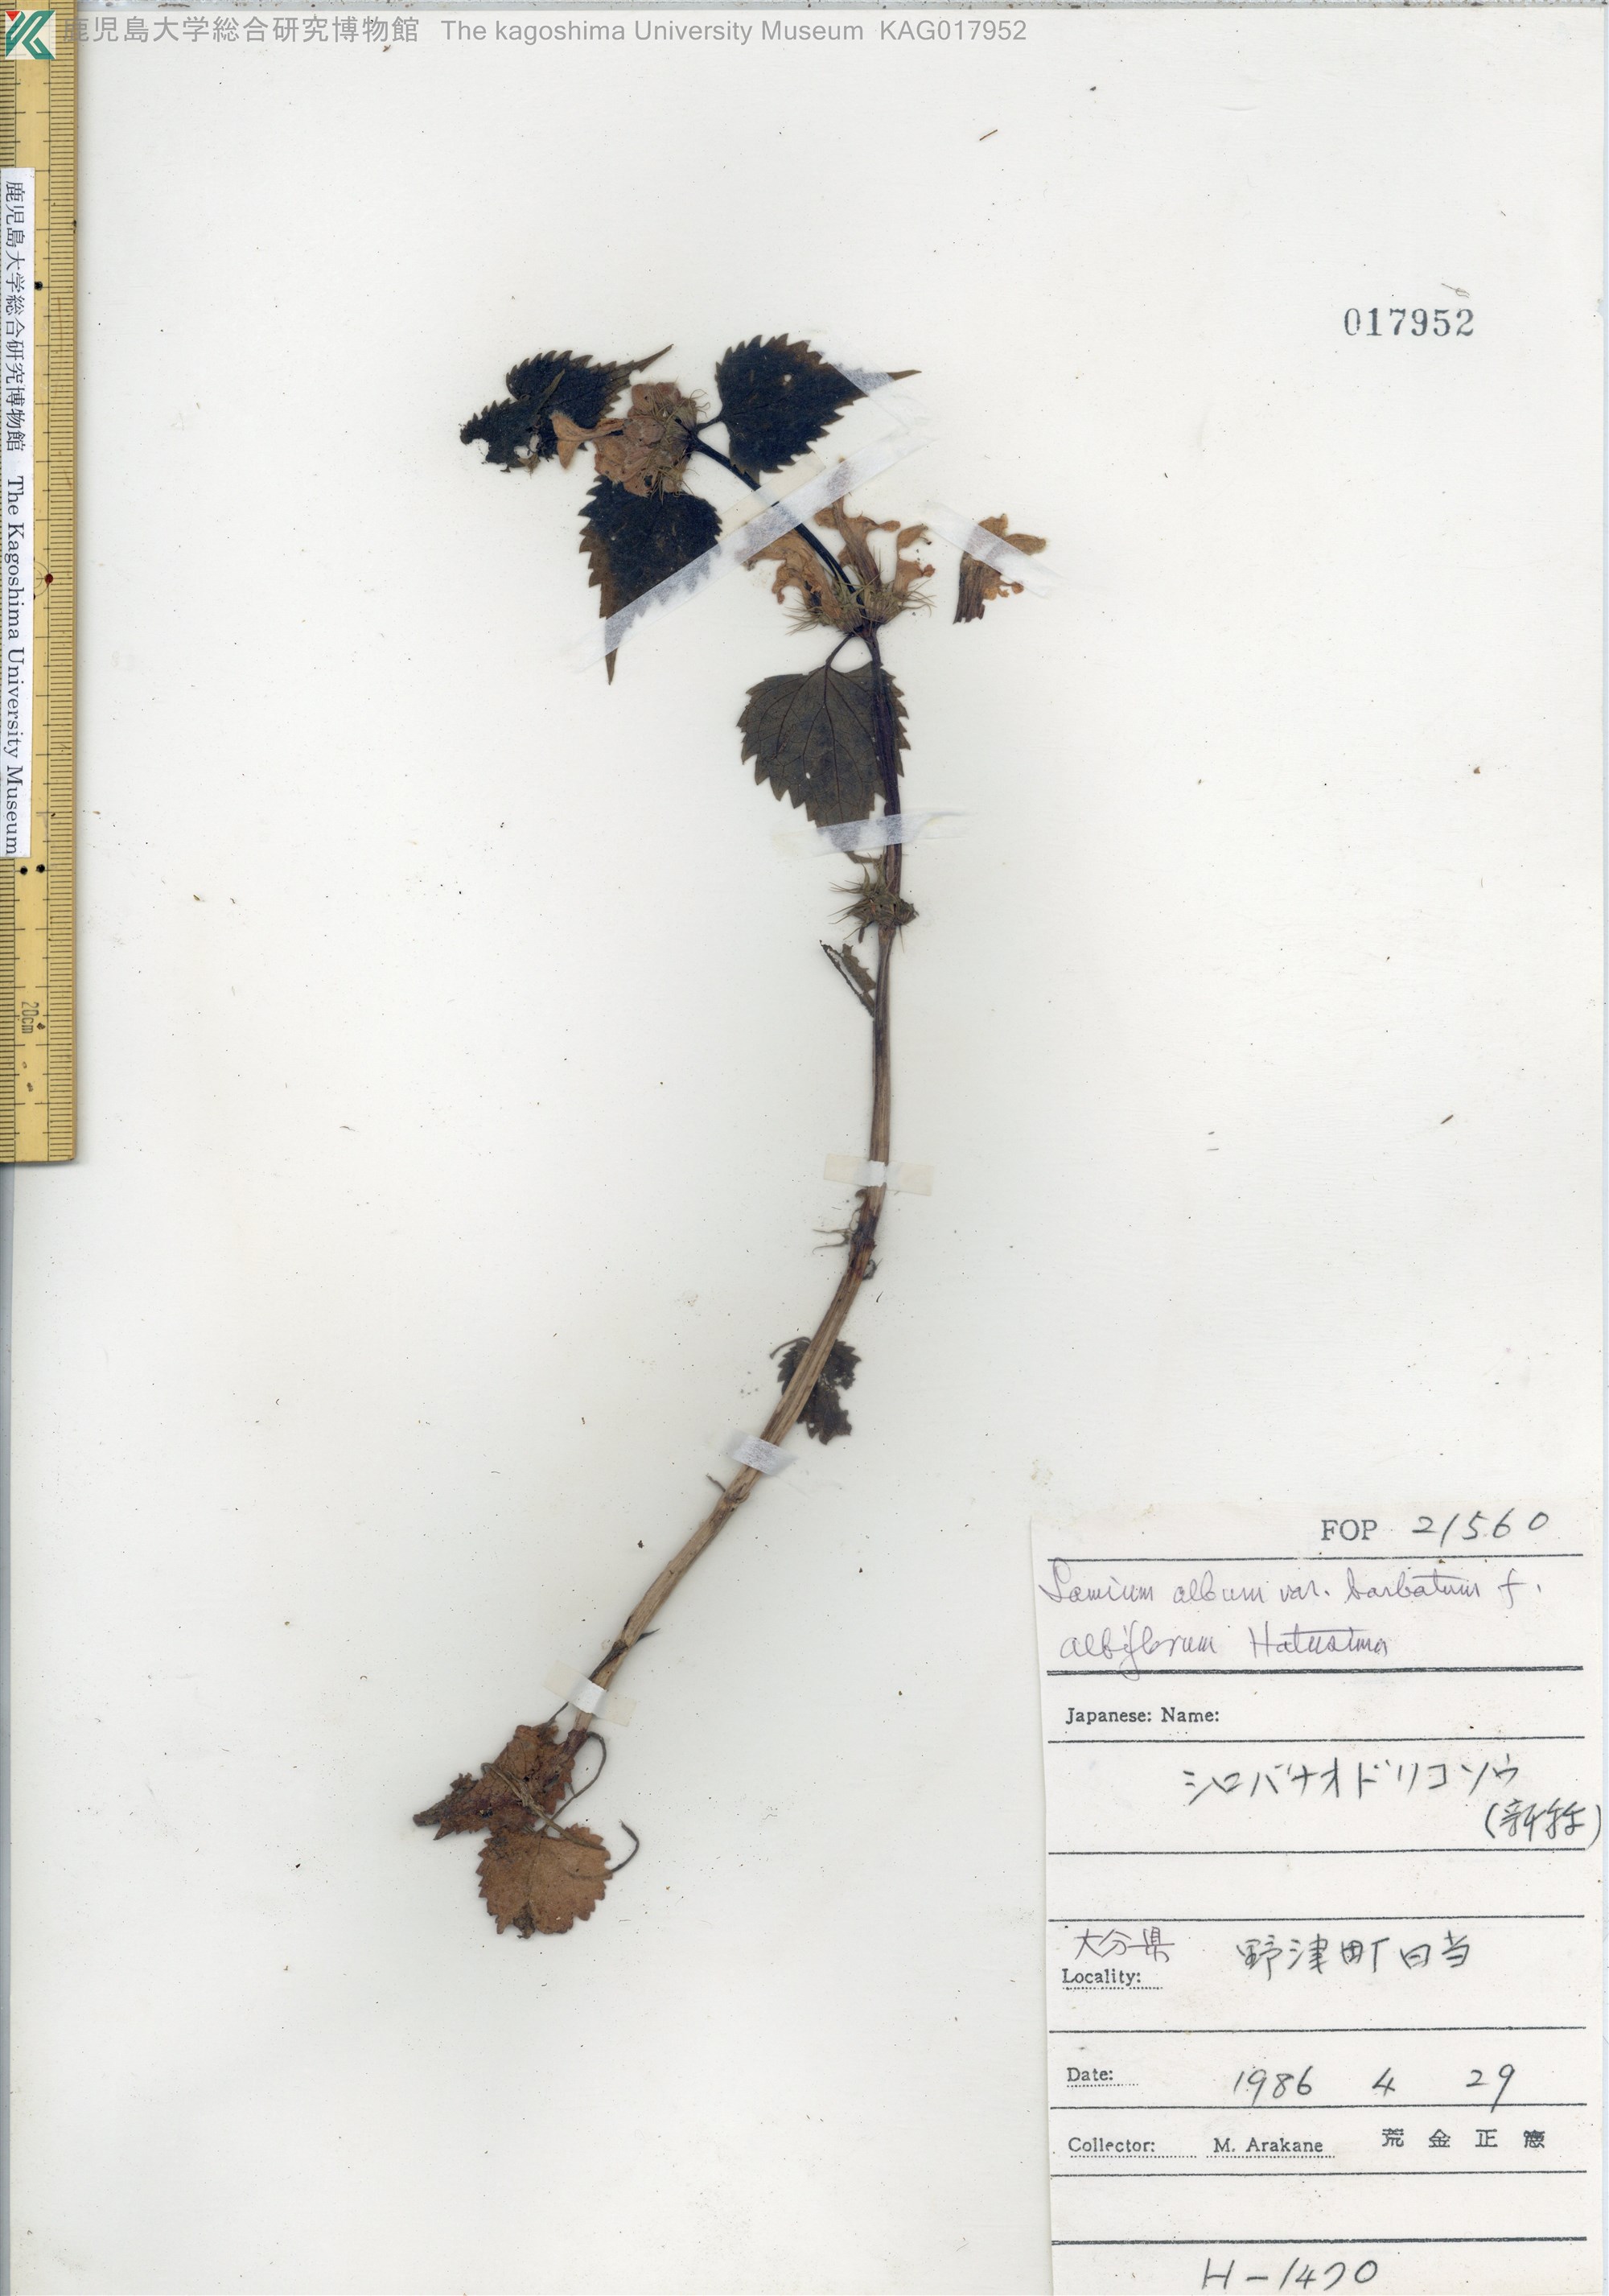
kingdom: Plantae
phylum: Tracheophyta
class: Magnoliopsida
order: Lamiales
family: Lamiaceae
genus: Lamium
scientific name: Lamium album
